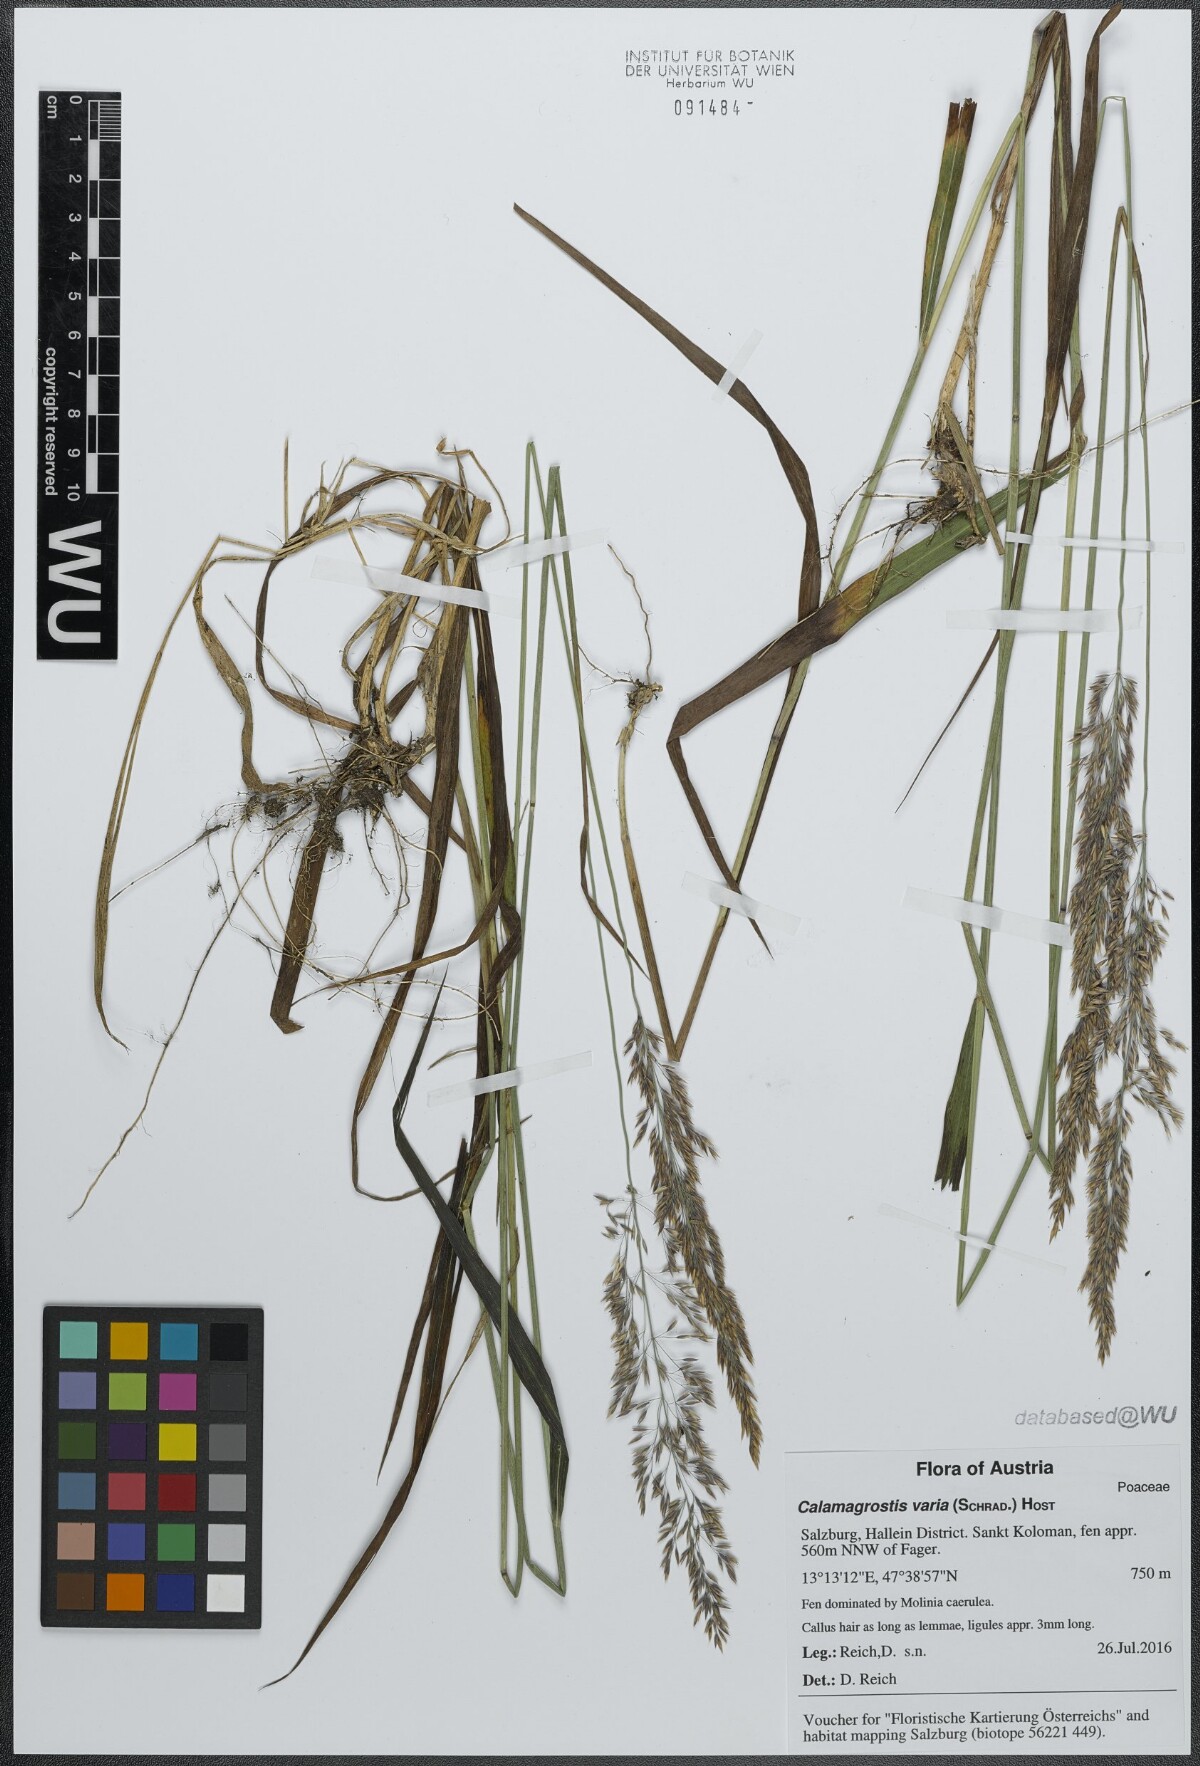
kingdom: Plantae
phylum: Tracheophyta
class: Liliopsida
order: Poales
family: Poaceae
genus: Calamagrostis
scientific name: Calamagrostis varia
